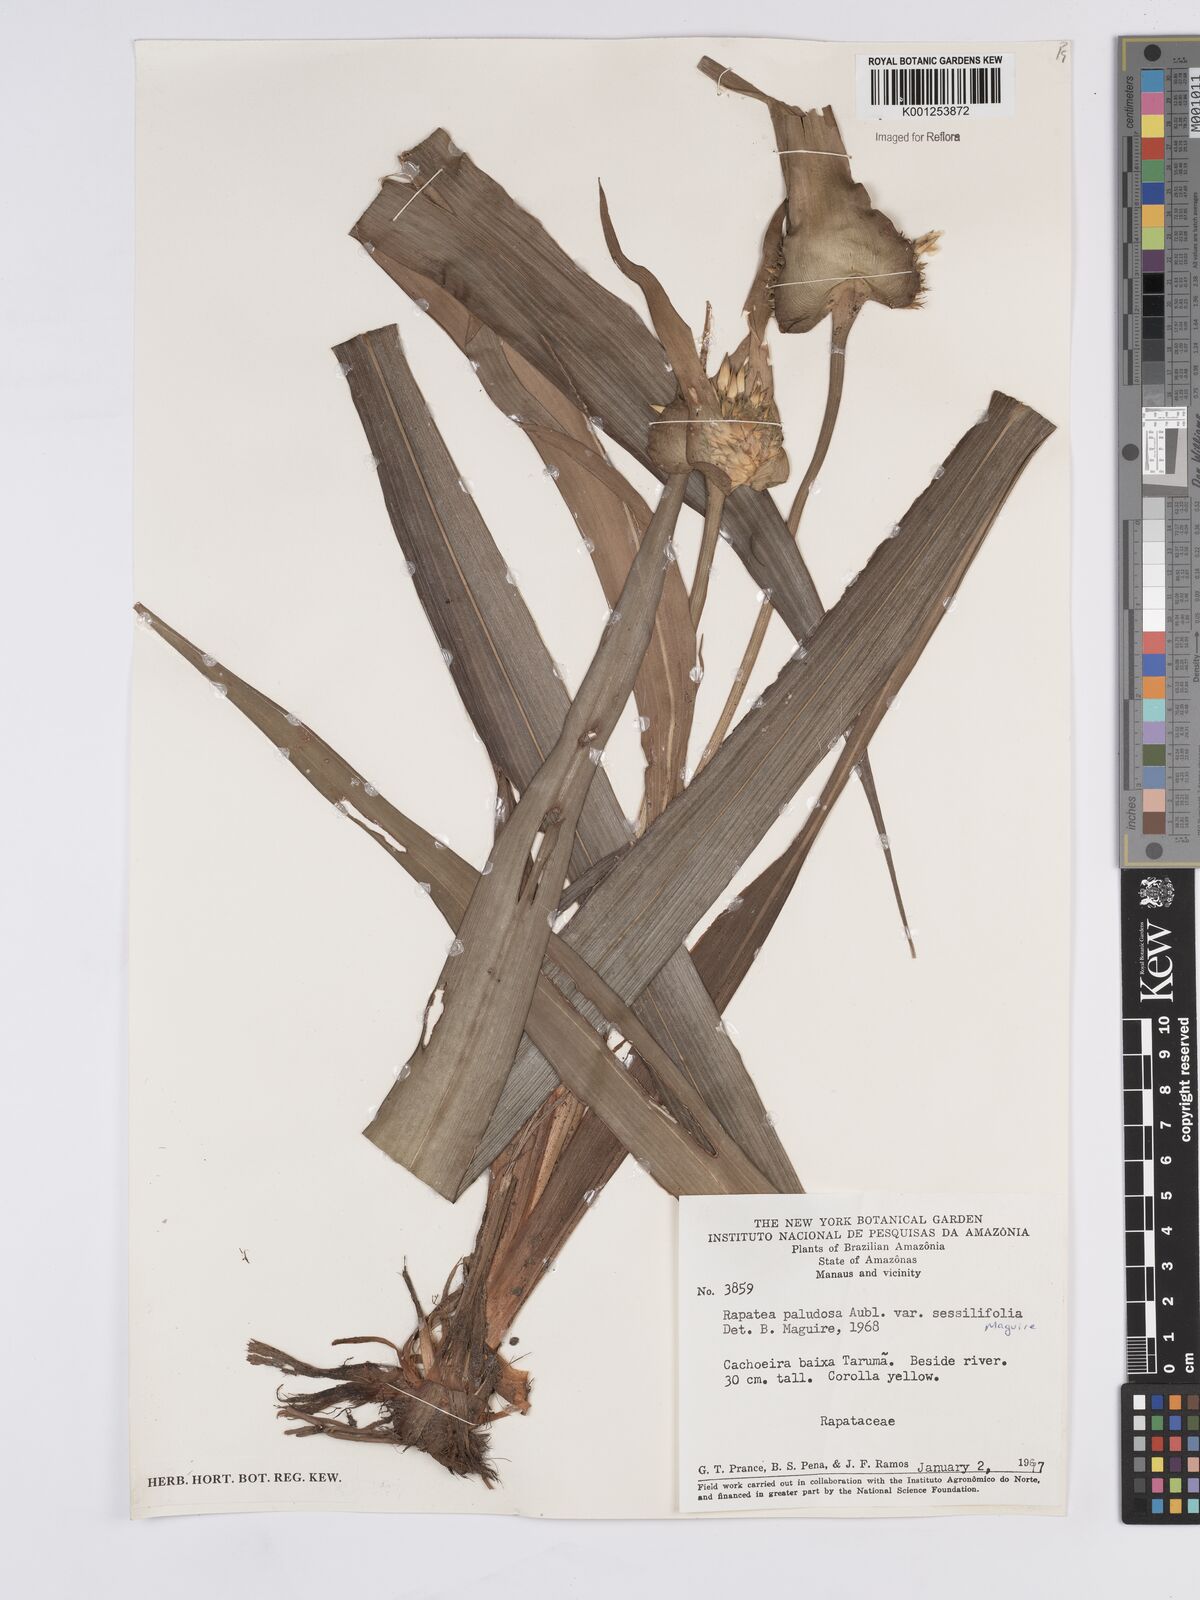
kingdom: Plantae
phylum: Tracheophyta
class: Liliopsida
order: Poales
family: Rapateaceae
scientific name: Rapateaceae
